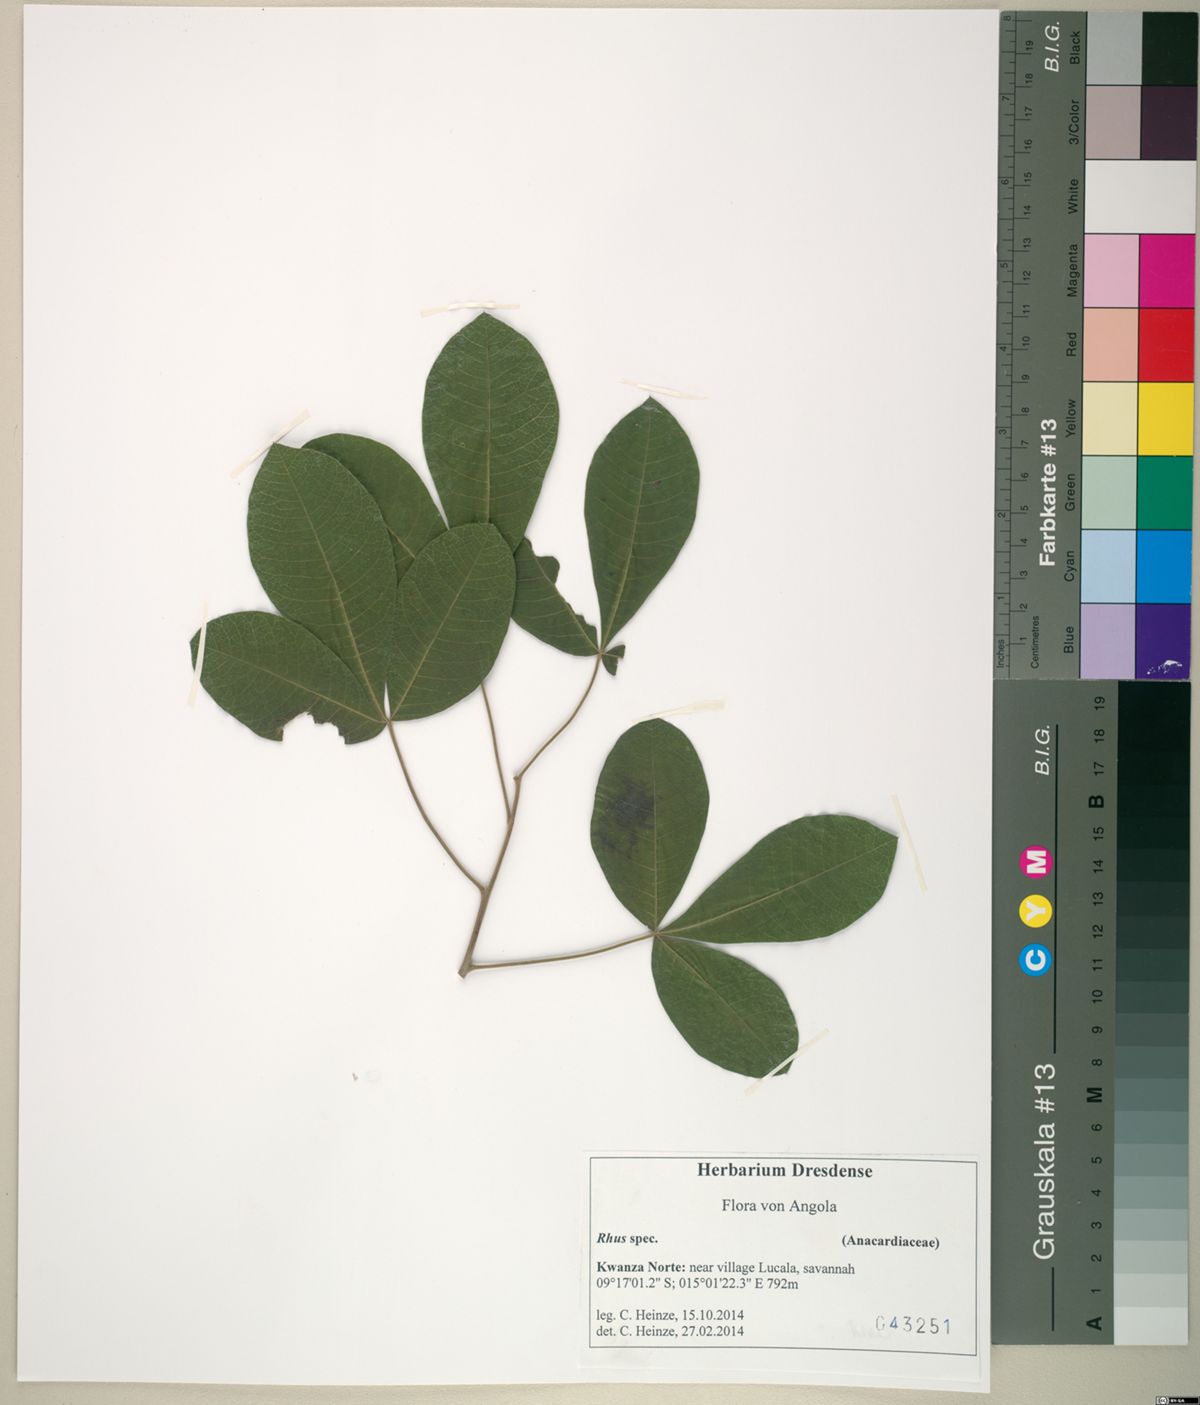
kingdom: Plantae
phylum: Tracheophyta
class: Magnoliopsida
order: Sapindales
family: Anacardiaceae
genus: Rhus
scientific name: Rhus
